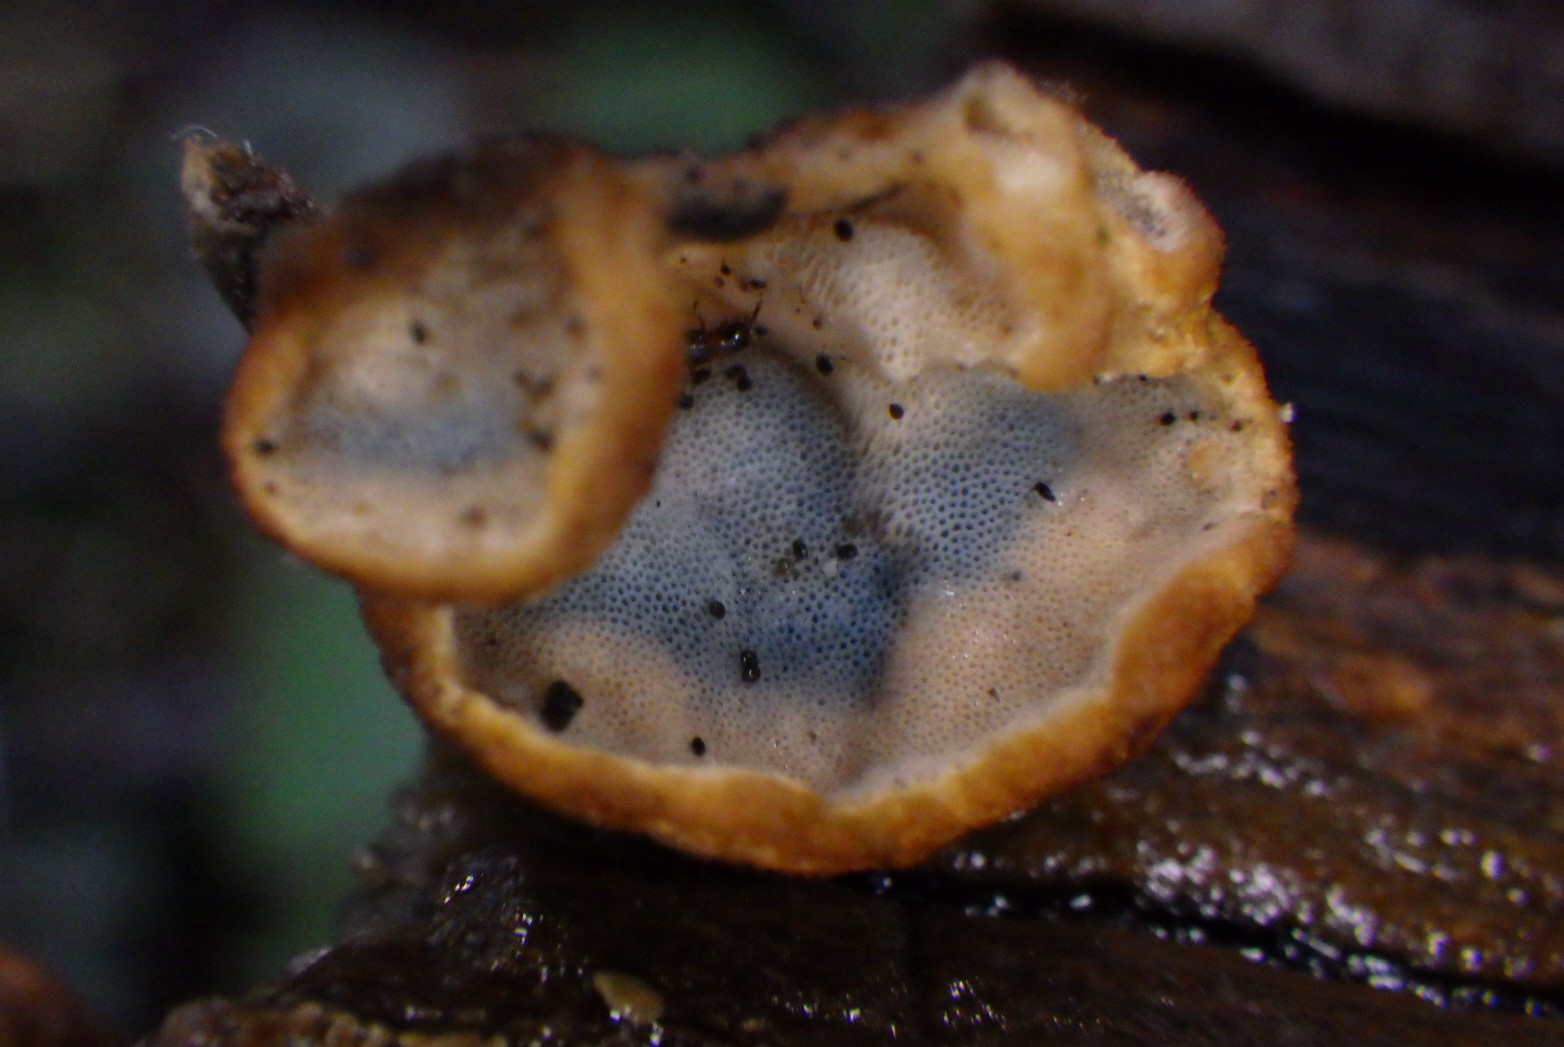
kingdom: Fungi
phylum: Basidiomycota
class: Agaricomycetes
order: Polyporales
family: Incrustoporiaceae
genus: Skeletocutis
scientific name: Skeletocutis nemoralis
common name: stor krystalporesvamp
